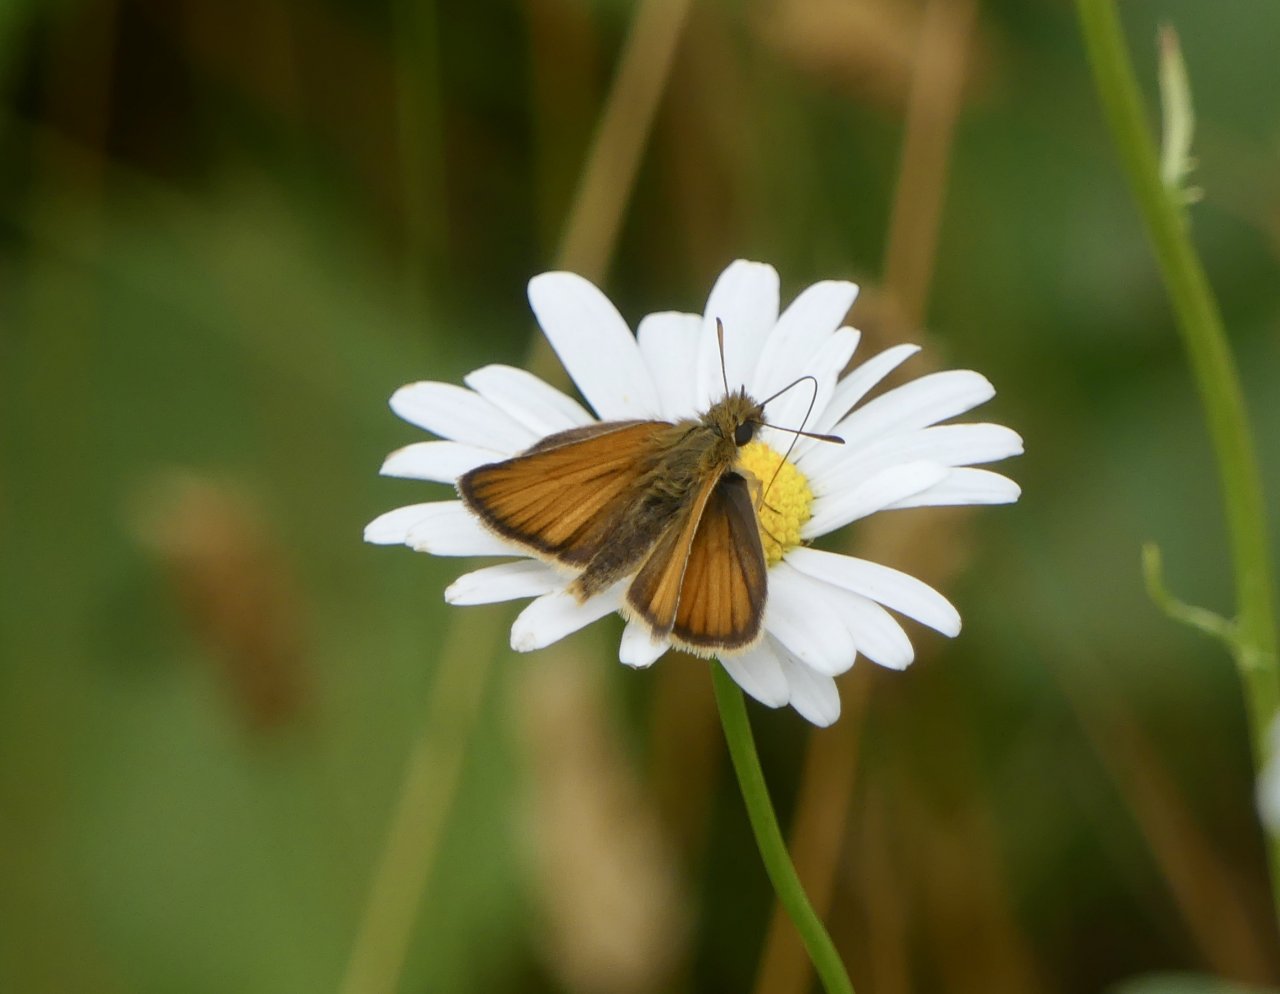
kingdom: Animalia
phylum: Arthropoda
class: Insecta
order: Lepidoptera
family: Hesperiidae
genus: Thymelicus
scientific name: Thymelicus lineola
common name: European Skipper
